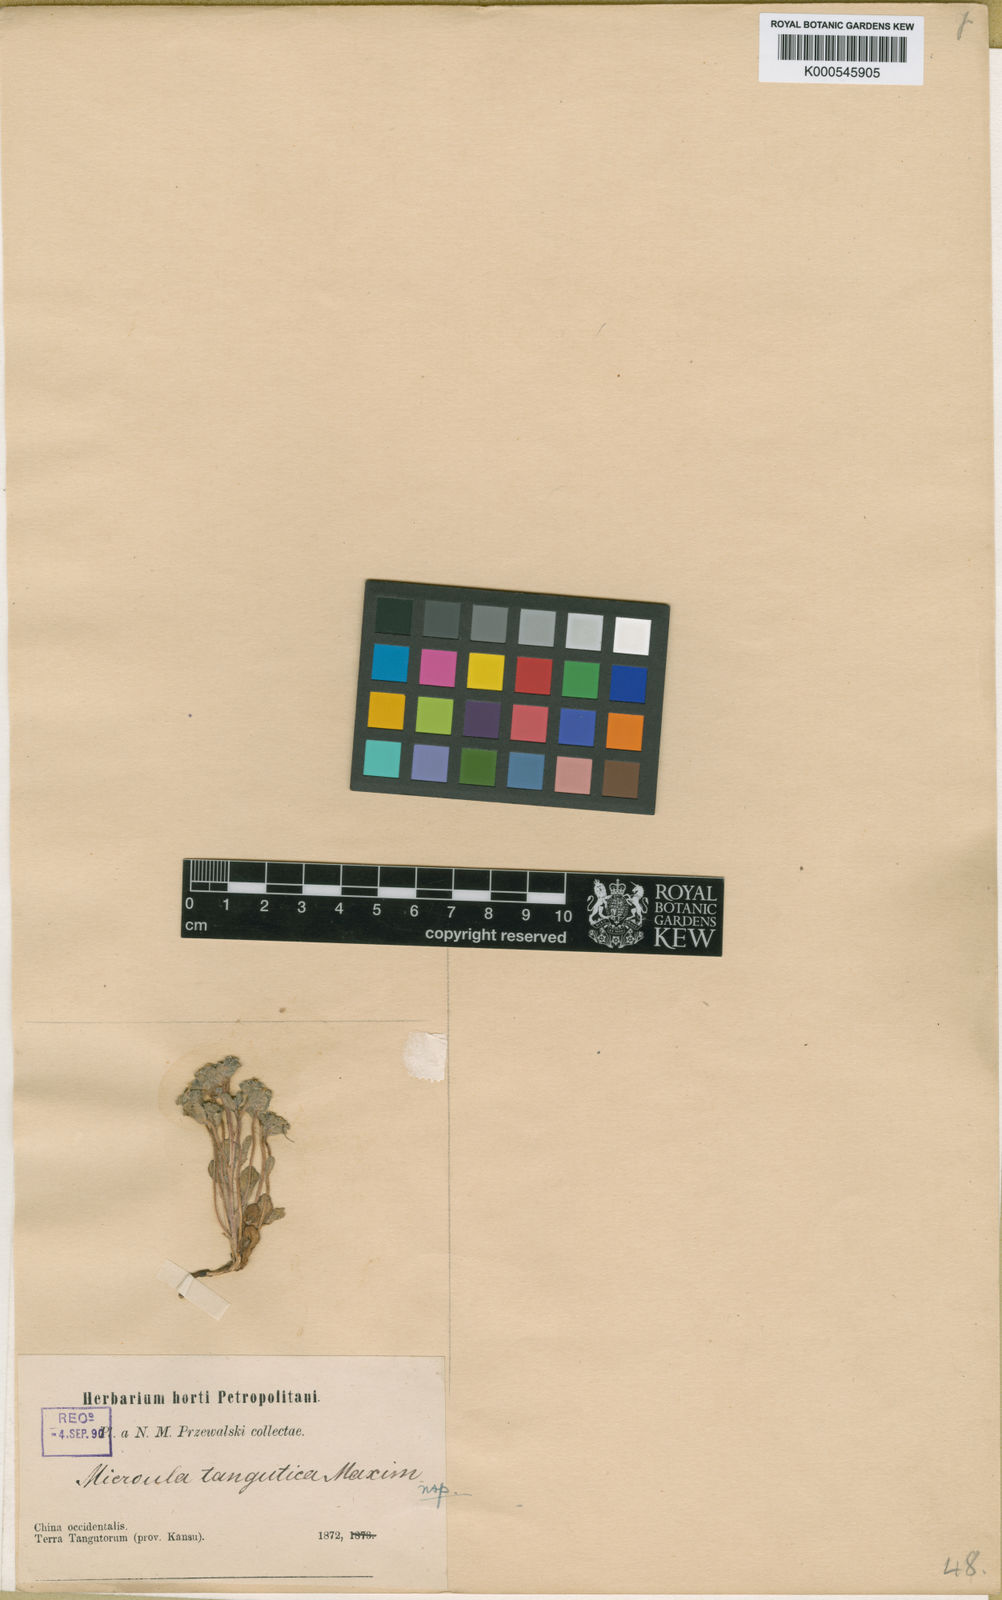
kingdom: Plantae
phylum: Tracheophyta
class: Magnoliopsida
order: Boraginales
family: Boraginaceae
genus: Microula
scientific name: Microula tangutica
